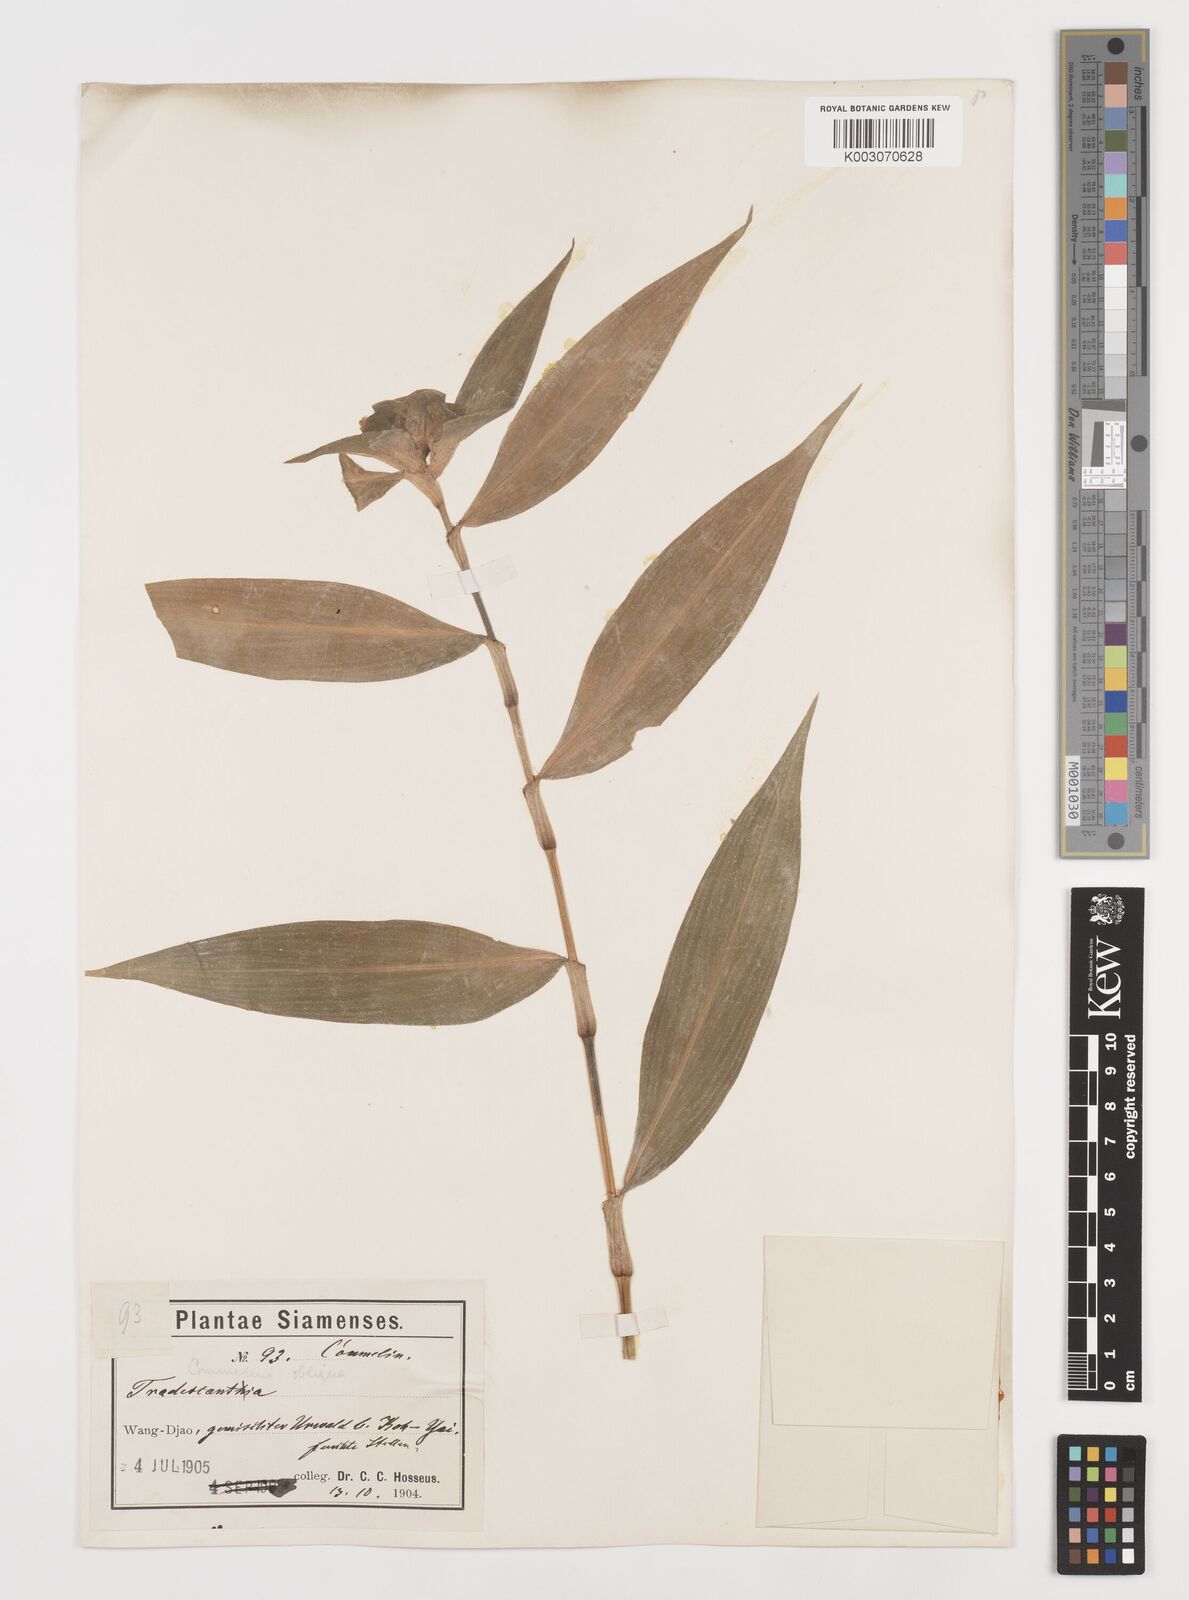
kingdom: Plantae
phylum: Tracheophyta
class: Liliopsida
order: Commelinales
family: Commelinaceae
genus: Commelina
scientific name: Commelina paludosa
